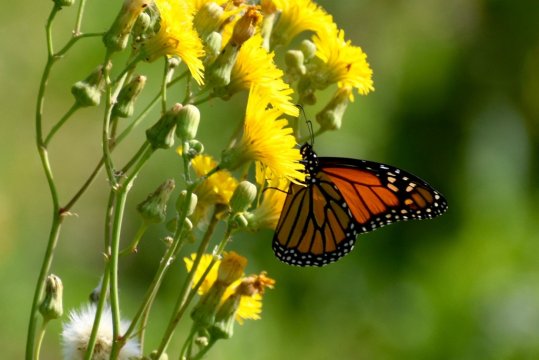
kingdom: Animalia
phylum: Arthropoda
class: Insecta
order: Lepidoptera
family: Nymphalidae
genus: Danaus
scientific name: Danaus plexippus
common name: Monarch
